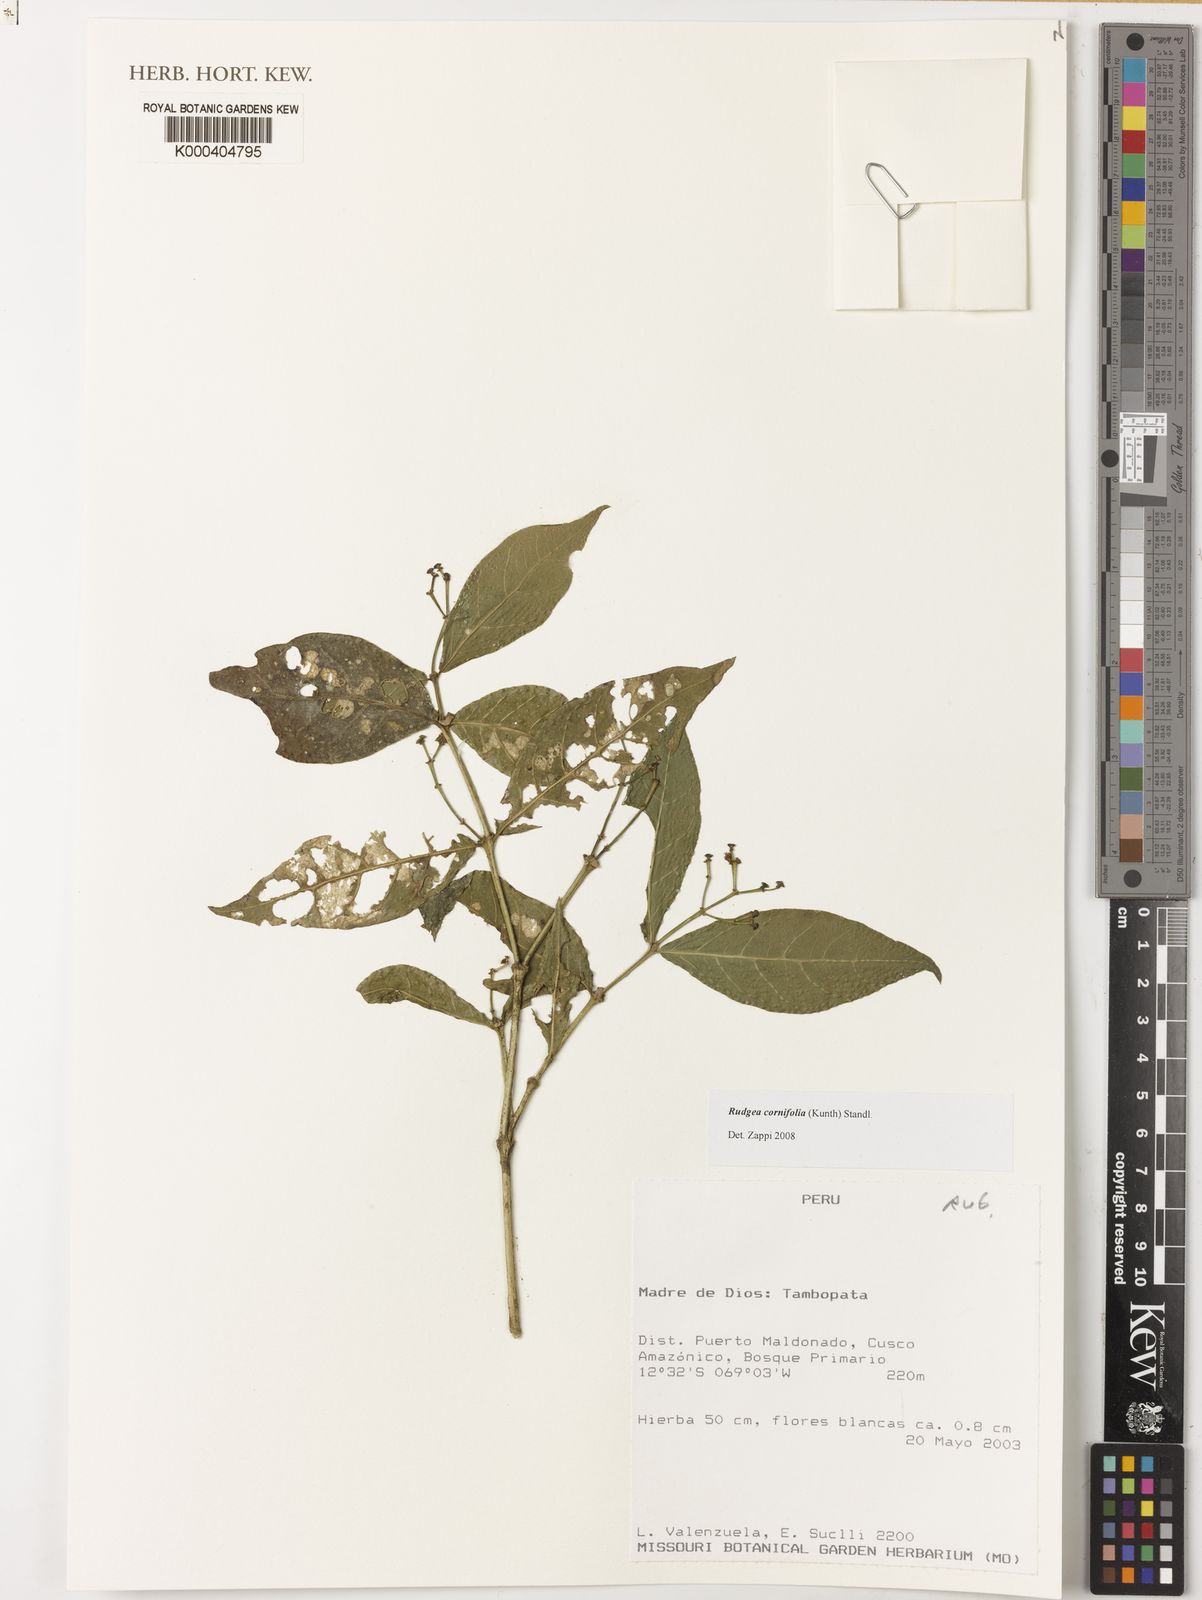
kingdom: Plantae
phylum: Tracheophyta
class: Magnoliopsida
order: Gentianales
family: Rubiaceae
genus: Rudgea
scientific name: Rudgea cornifolia
